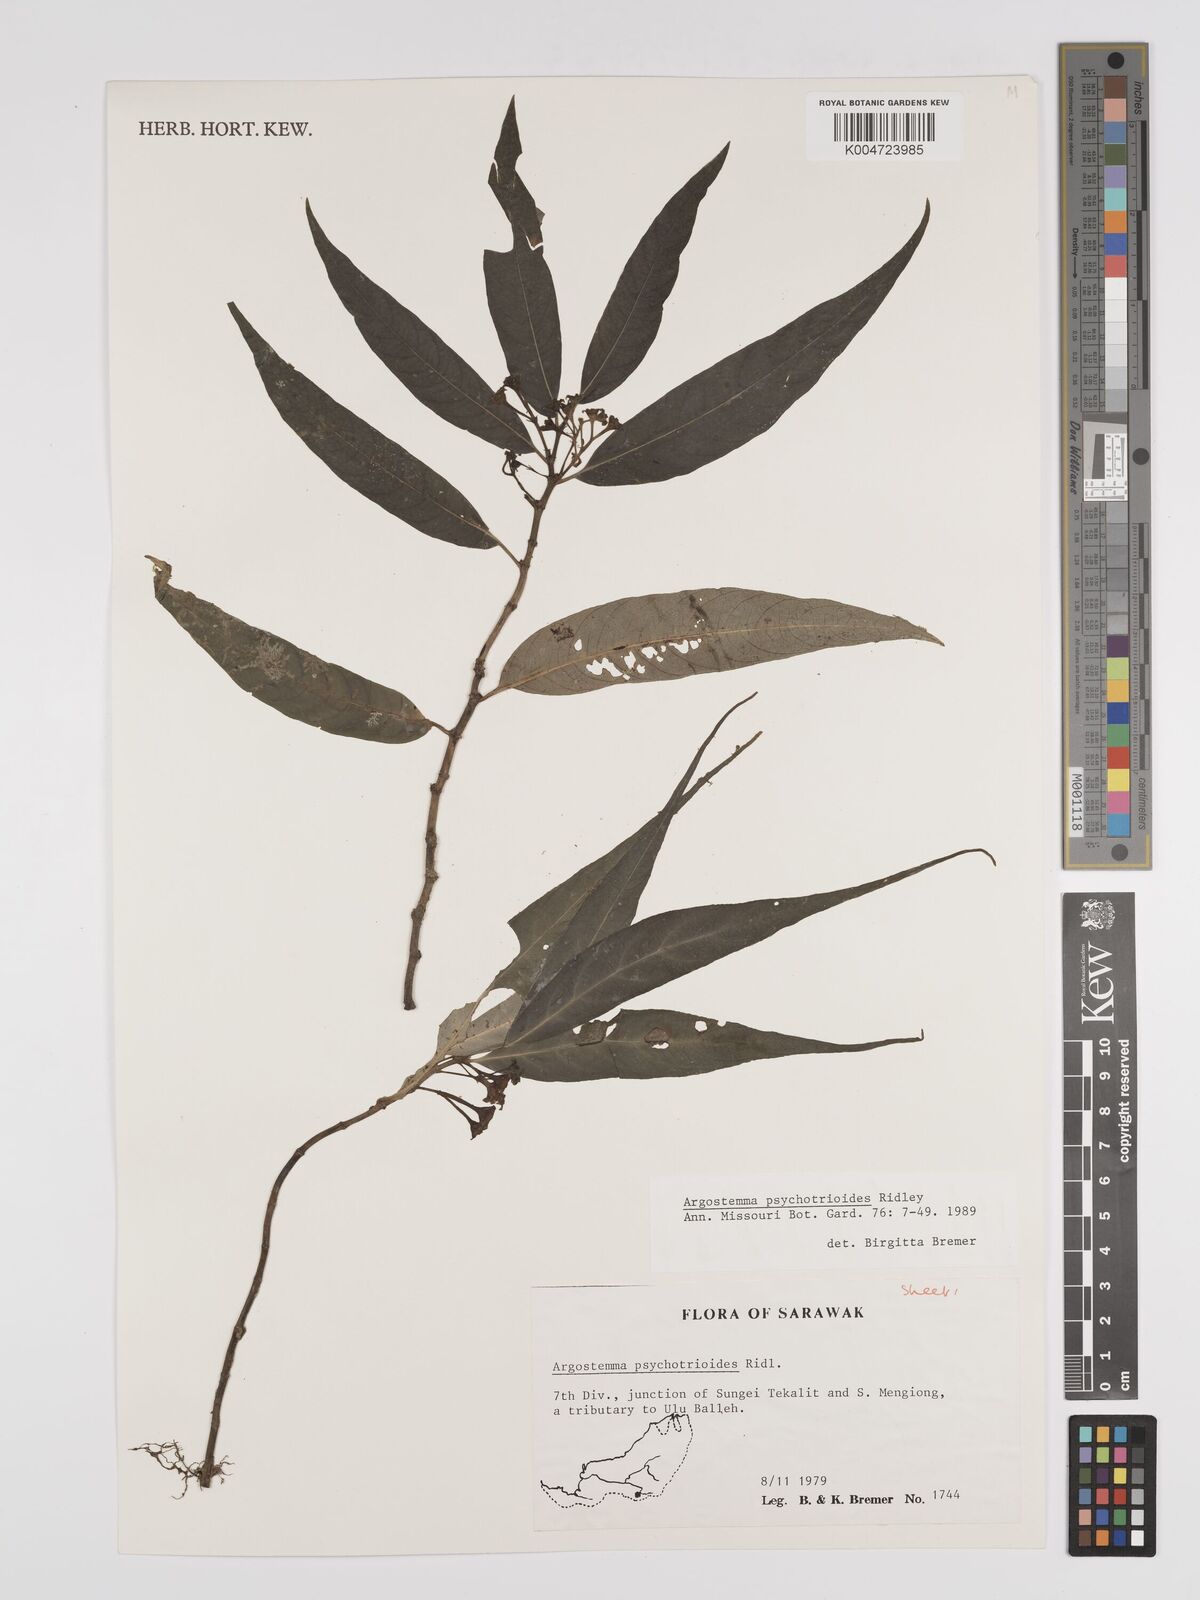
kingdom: Plantae
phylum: Tracheophyta
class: Magnoliopsida
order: Gentianales
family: Rubiaceae
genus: Argostemma
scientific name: Argostemma psychotrioides
